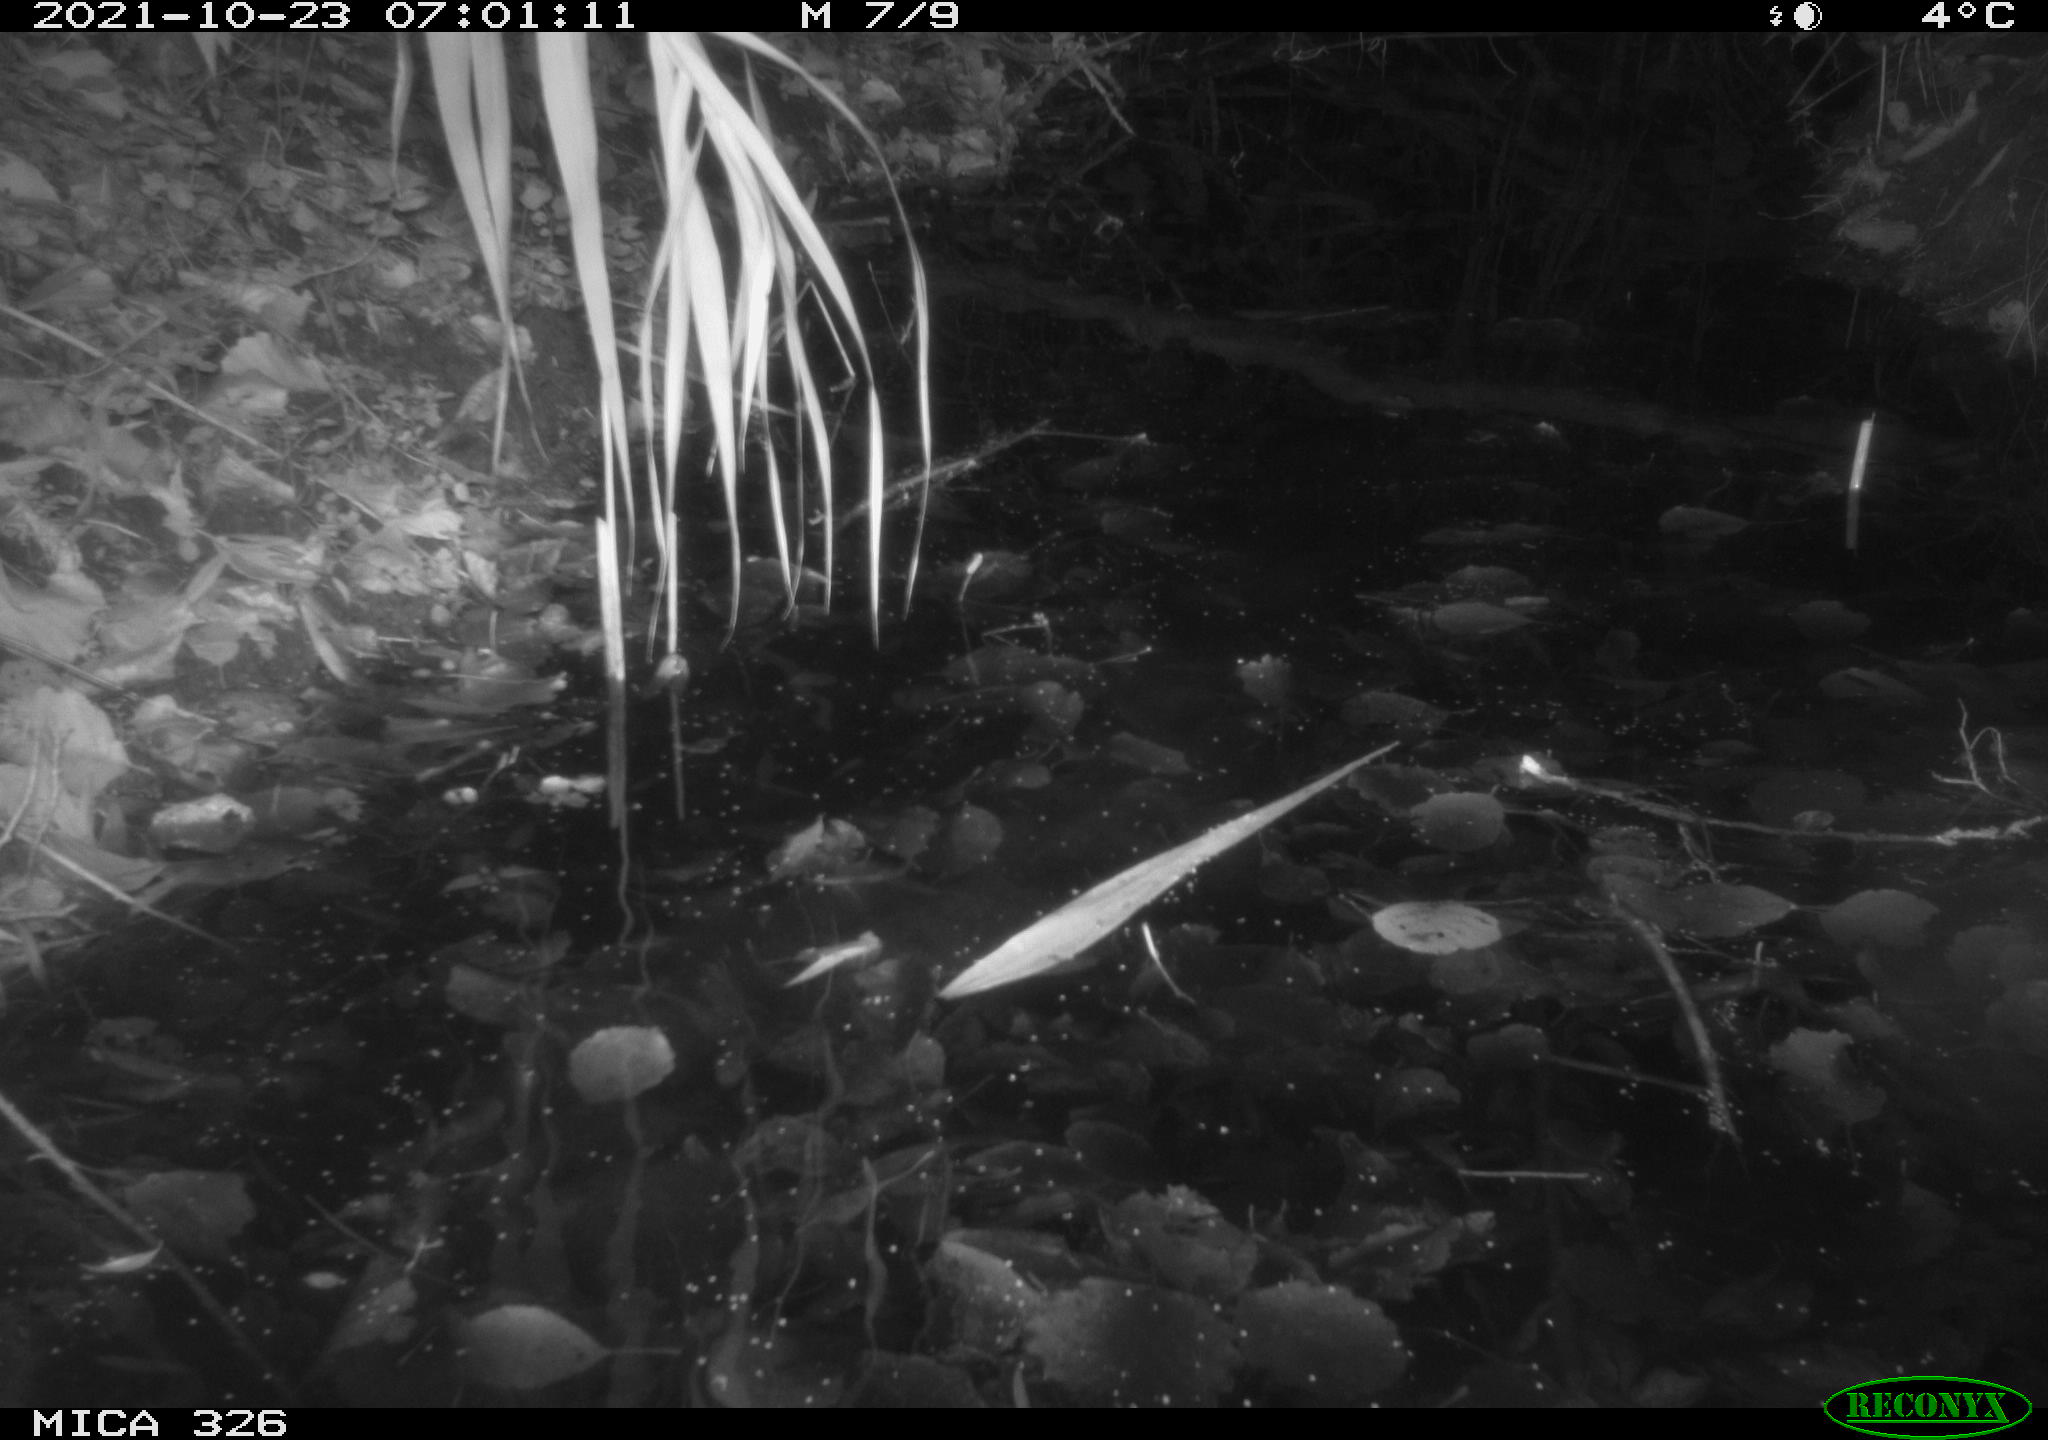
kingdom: Animalia
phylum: Chordata
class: Mammalia
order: Rodentia
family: Muridae
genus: Rattus
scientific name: Rattus norvegicus
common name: Brown rat
